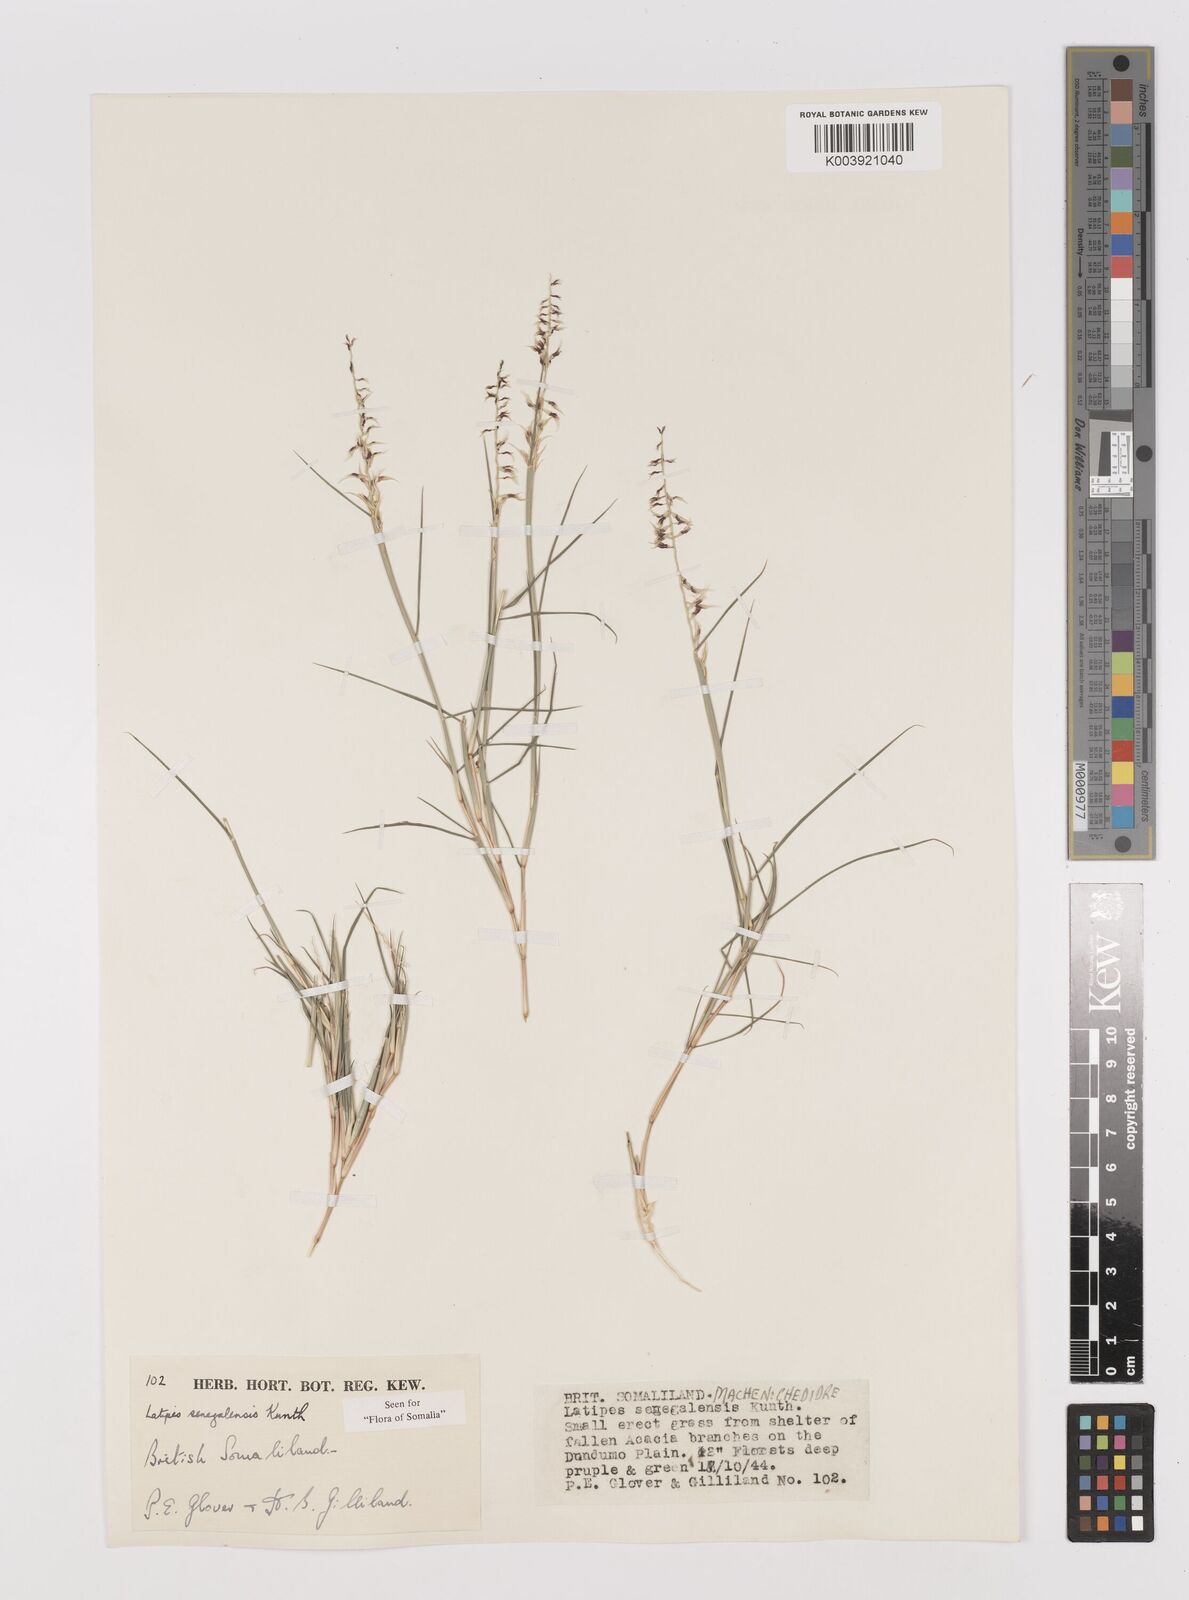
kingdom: Plantae
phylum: Tracheophyta
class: Liliopsida
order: Poales
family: Poaceae
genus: Leptothrium
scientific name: Leptothrium senegalense
